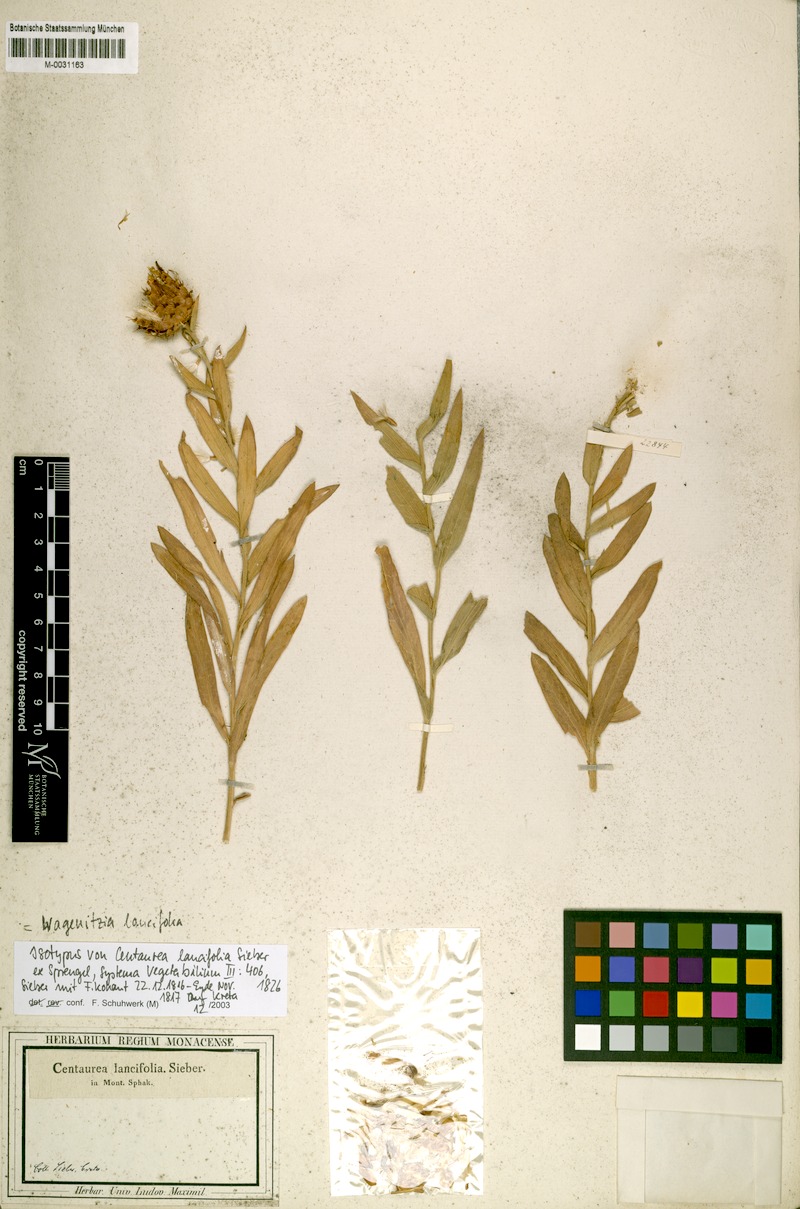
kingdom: Plantae
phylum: Tracheophyta
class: Magnoliopsida
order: Asterales
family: Asteraceae
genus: Centaurea
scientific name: Centaurea lancifolia
